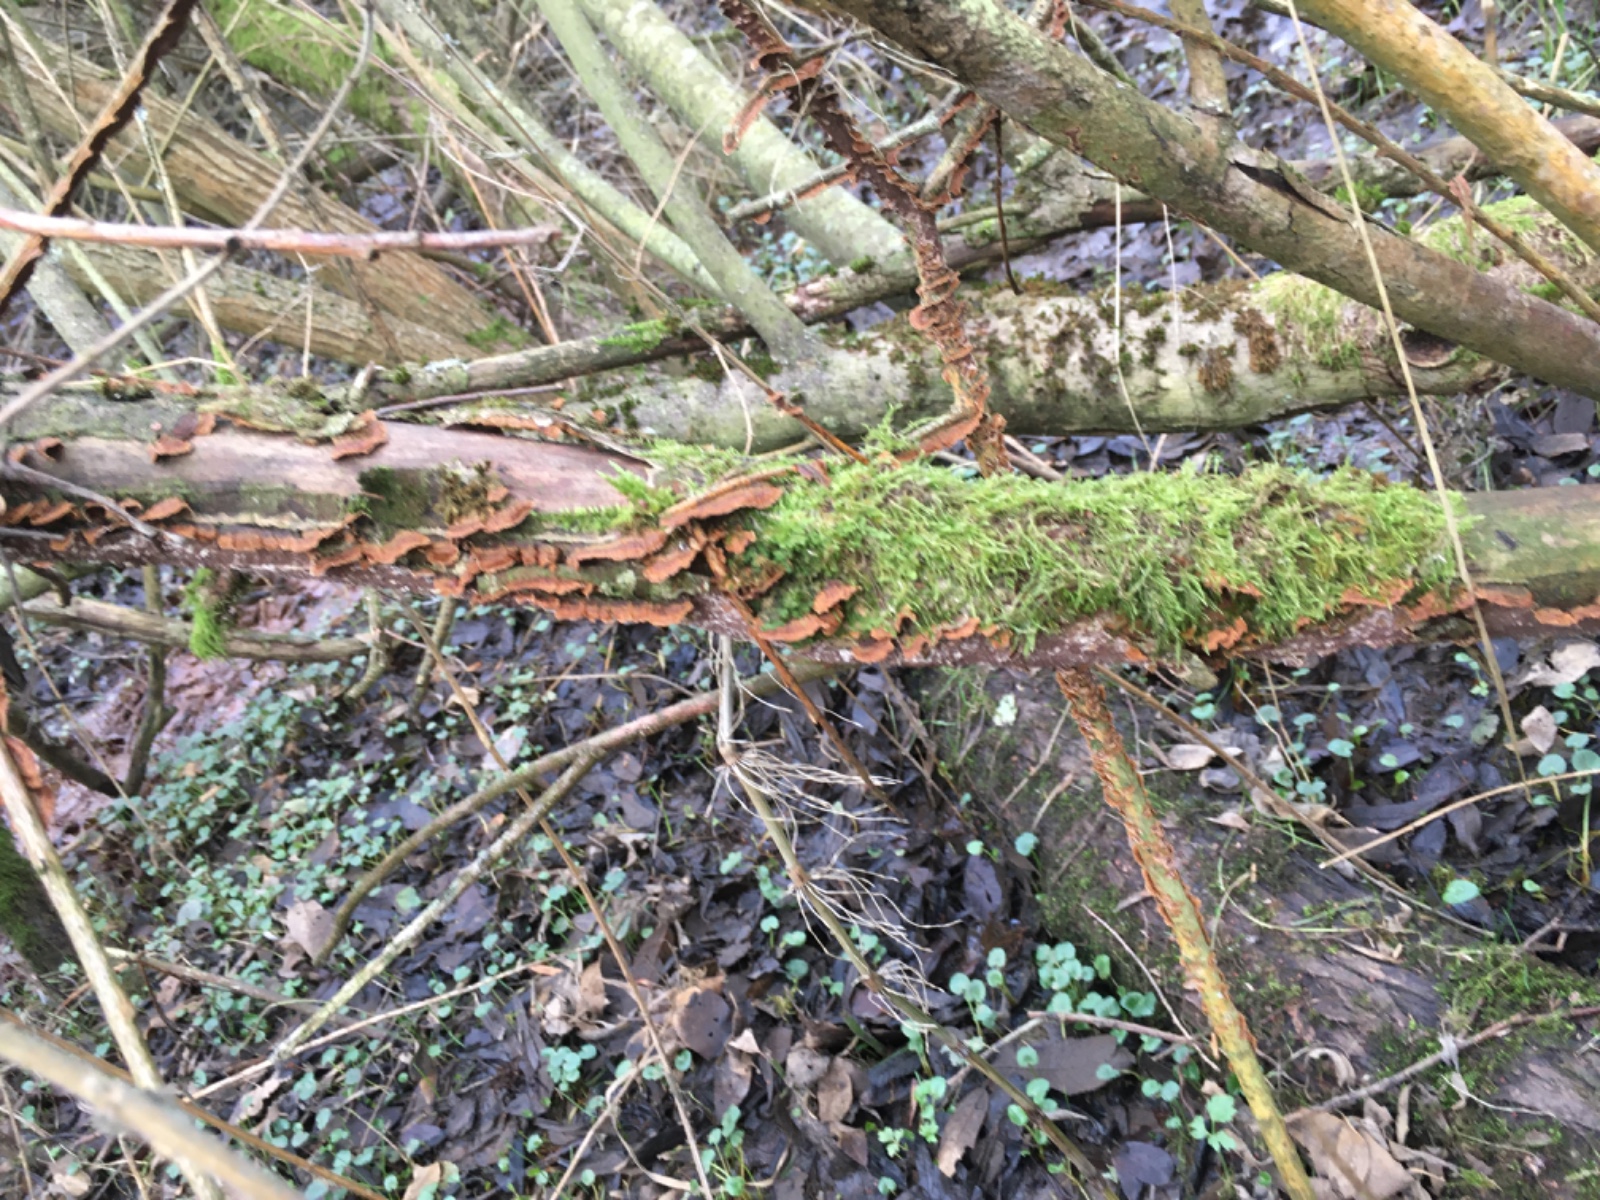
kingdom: Fungi
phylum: Basidiomycota
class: Agaricomycetes
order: Hymenochaetales
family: Hymenochaetaceae
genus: Hydnoporia
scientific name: Hydnoporia tabacina
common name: tobaksbrun ruslædersvamp
